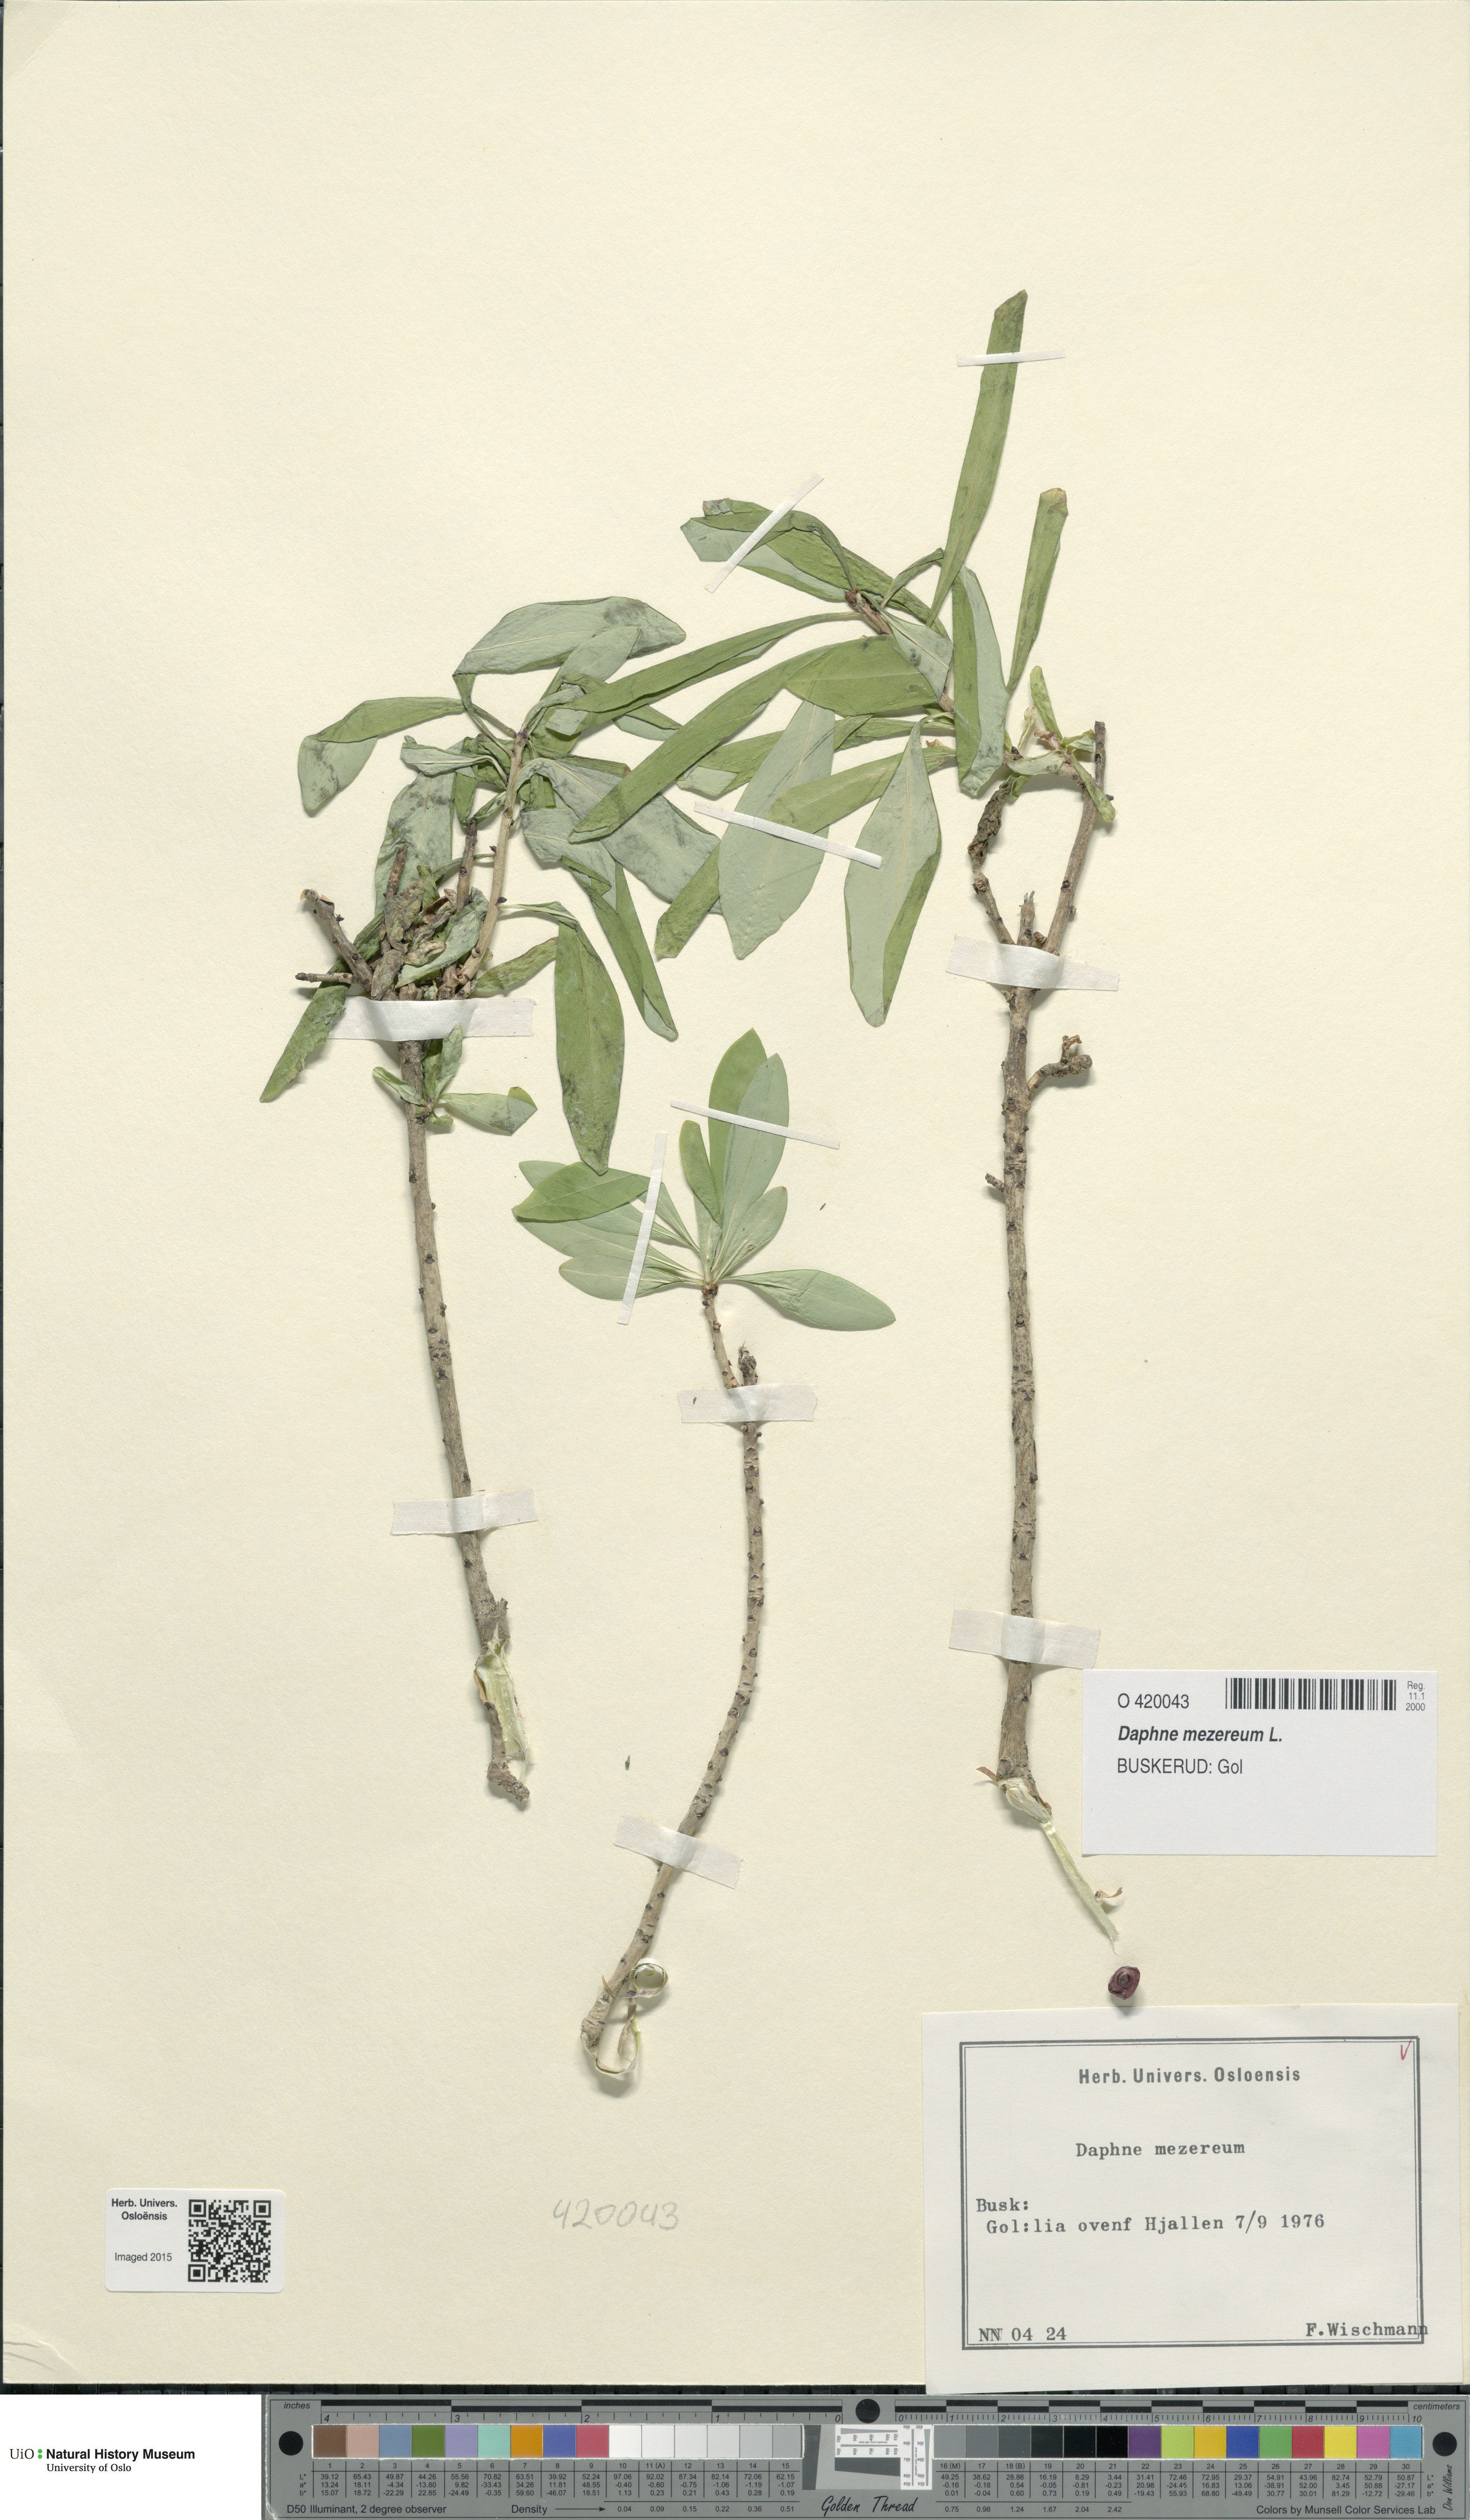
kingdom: Plantae
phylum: Tracheophyta
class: Magnoliopsida
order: Malvales
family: Thymelaeaceae
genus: Daphne
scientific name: Daphne mezereum
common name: Mezereon
